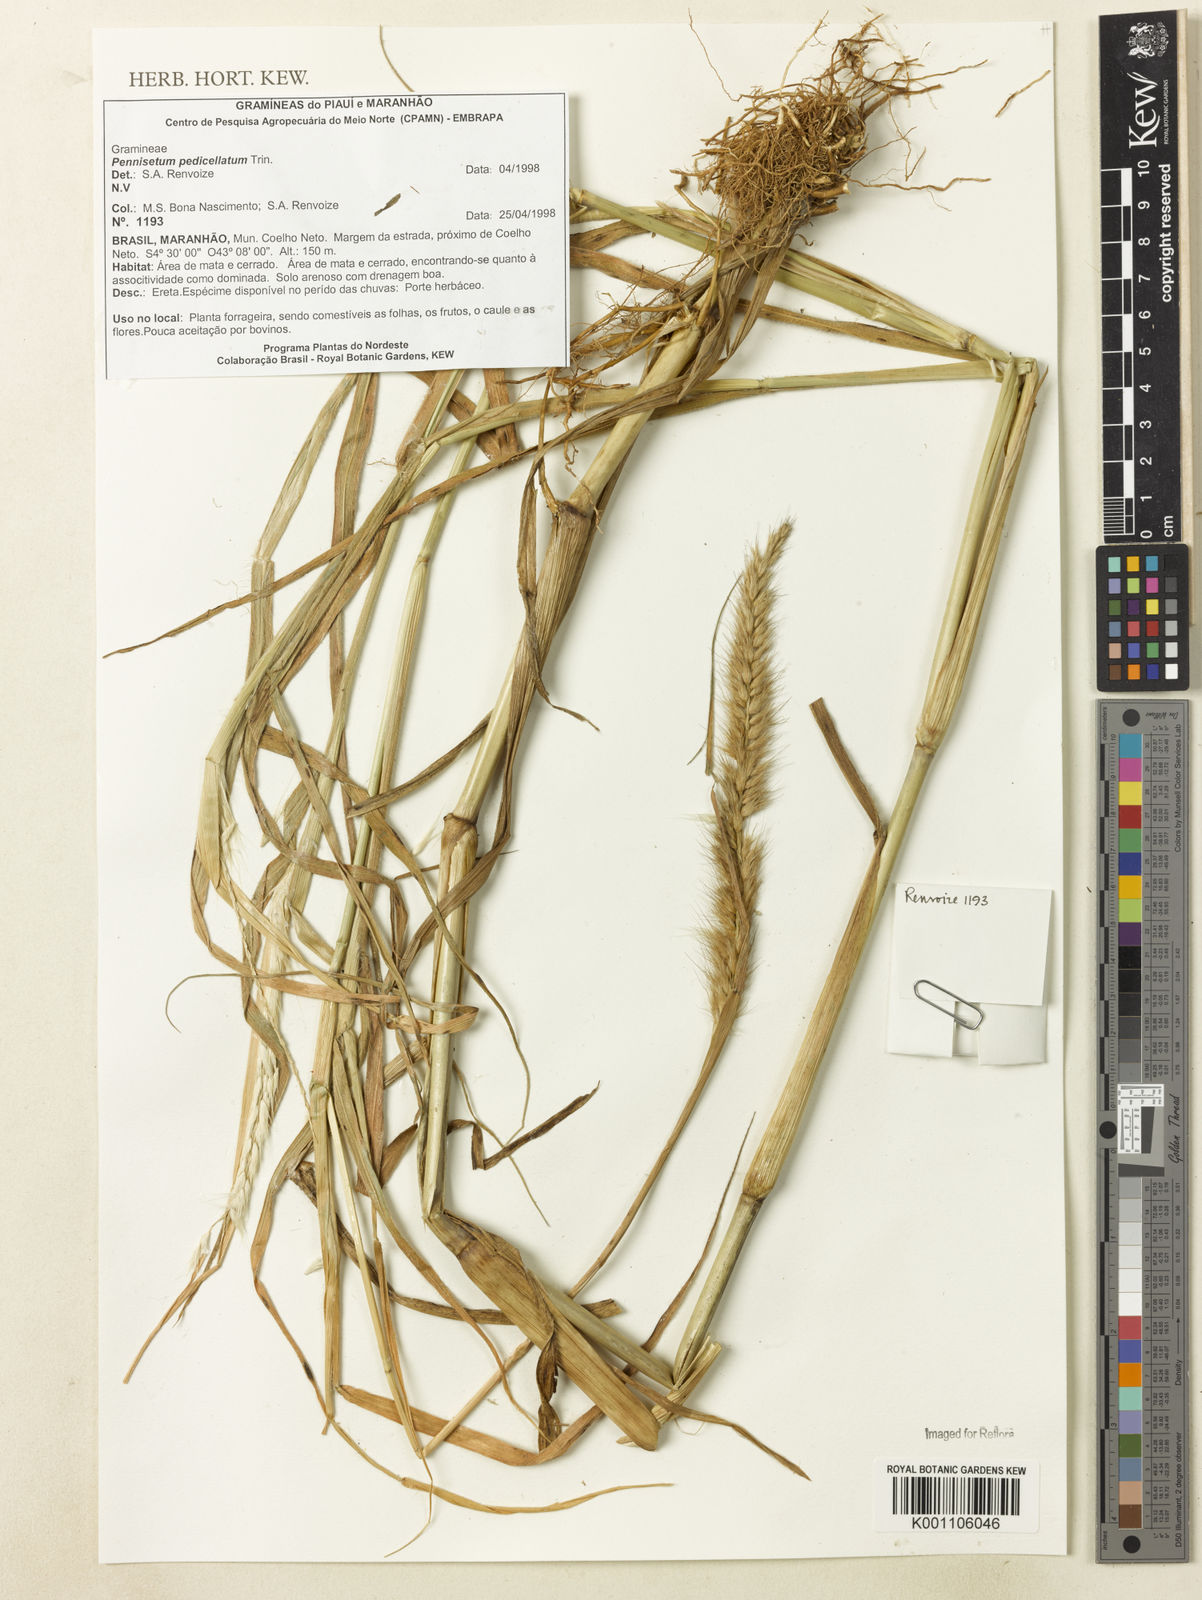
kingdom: Plantae
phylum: Tracheophyta
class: Liliopsida
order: Poales
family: Poaceae
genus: Cenchrus
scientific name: Cenchrus pedicellatus
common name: Hairy fountain grass
